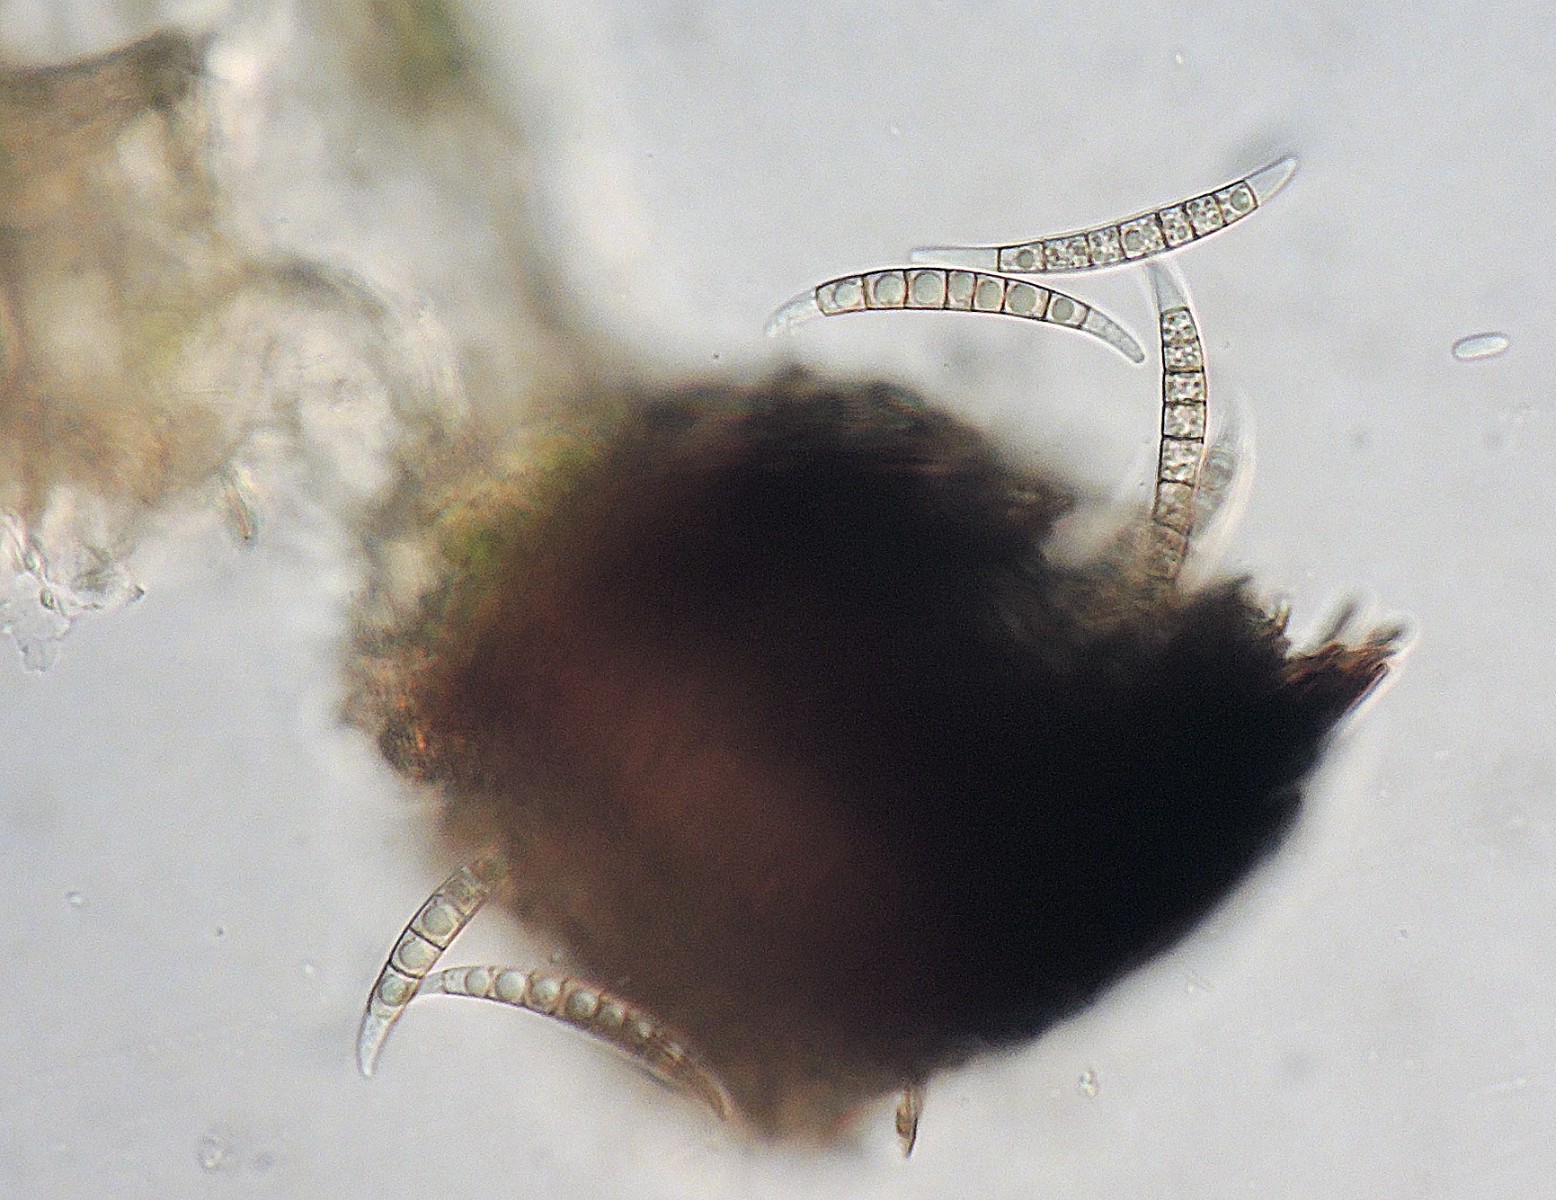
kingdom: Fungi
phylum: Ascomycota
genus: Excipularia
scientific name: Excipularia fusispora
